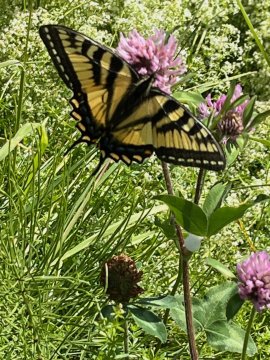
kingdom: Animalia
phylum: Arthropoda
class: Insecta
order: Lepidoptera
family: Papilionidae
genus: Pterourus
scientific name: Pterourus
